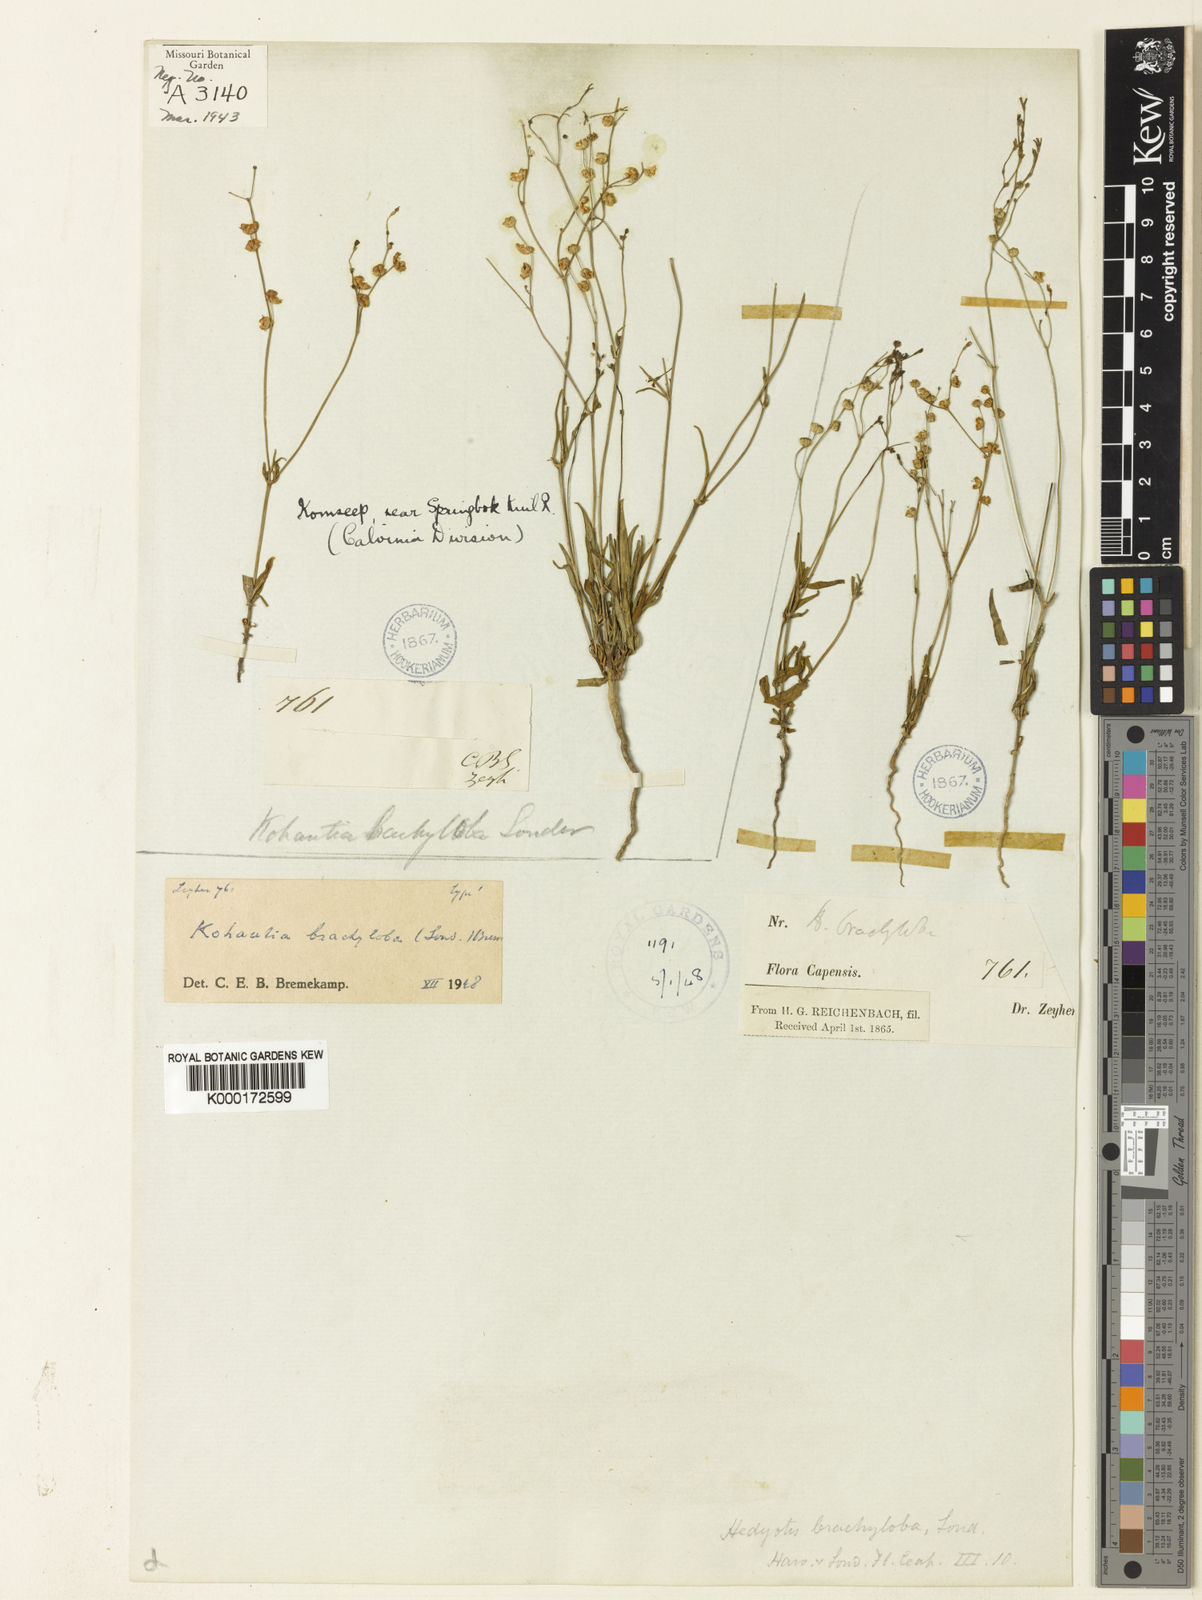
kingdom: Plantae
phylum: Tracheophyta
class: Magnoliopsida
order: Gentianales
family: Rubiaceae
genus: Kohautia
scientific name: Kohautia caespitosa
